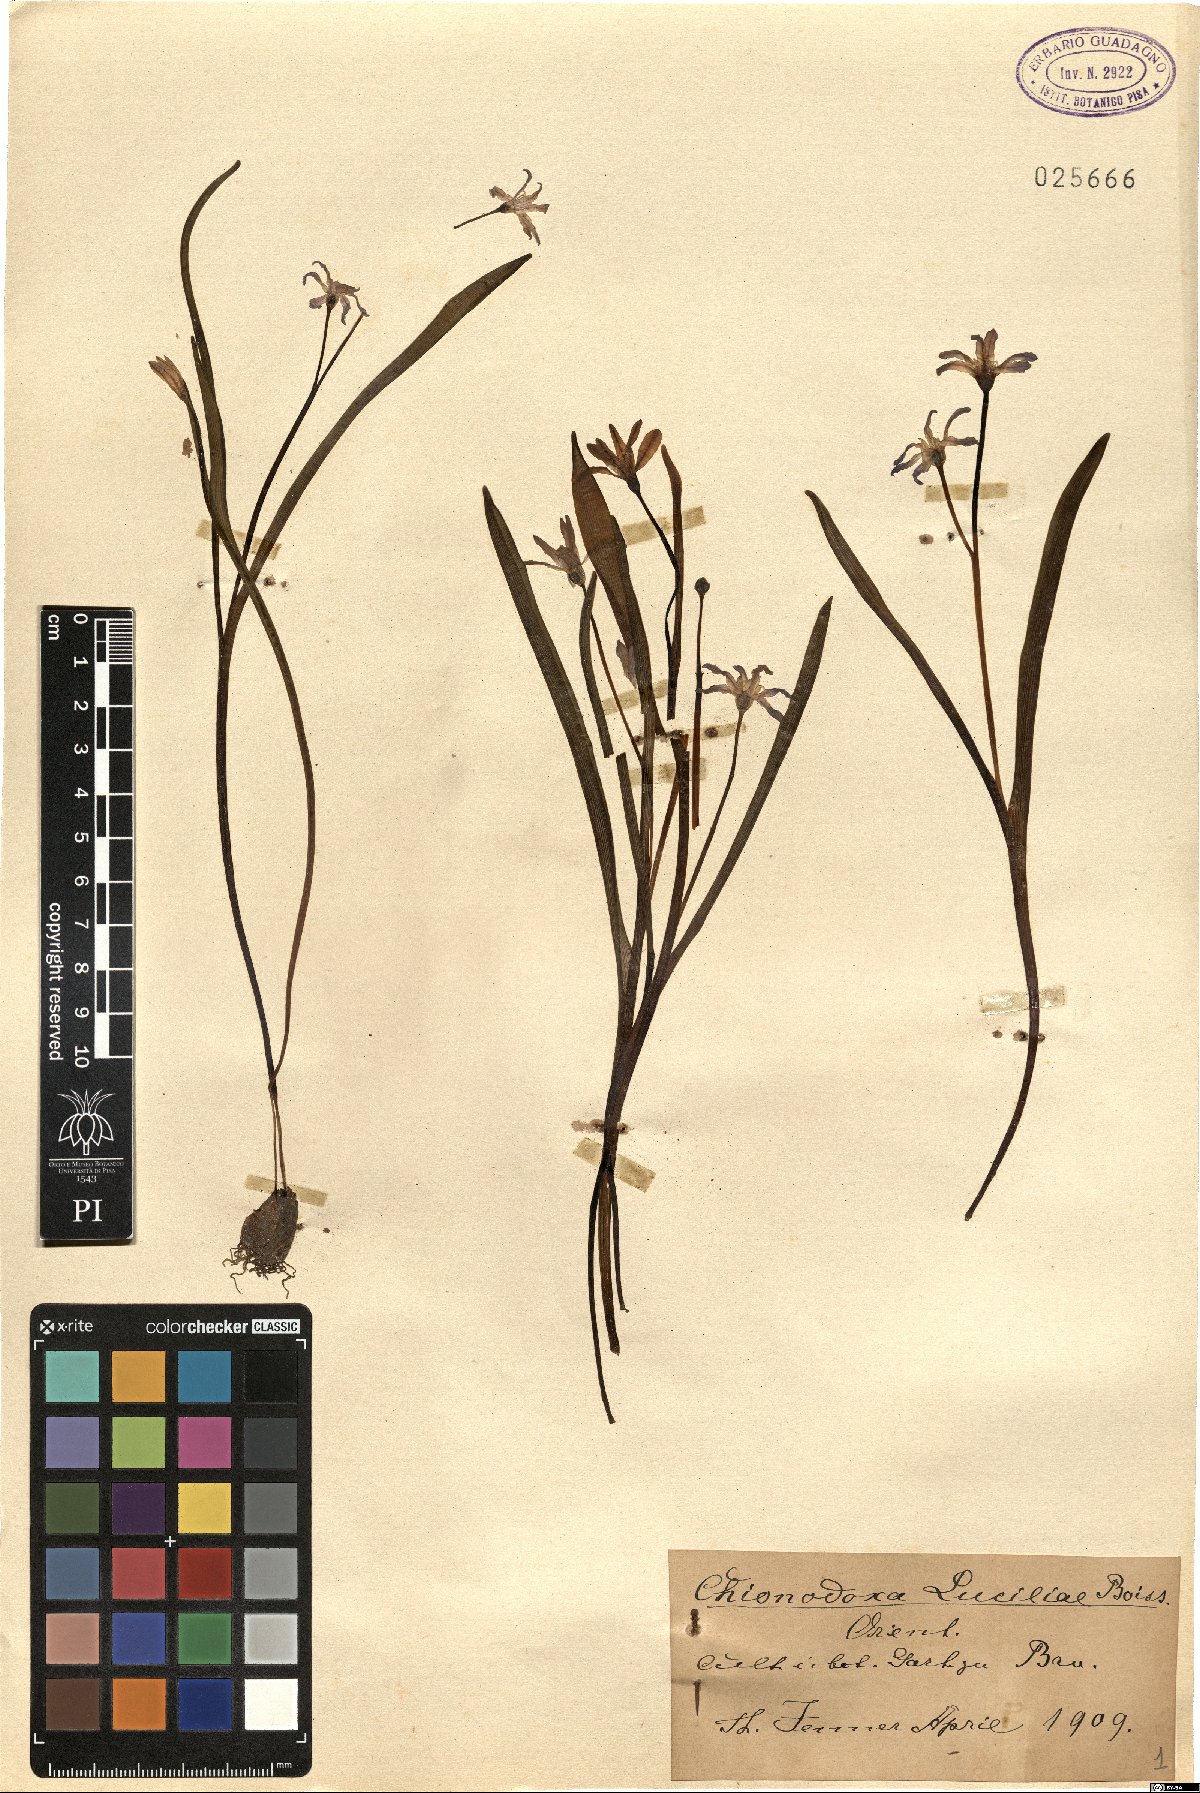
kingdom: Plantae
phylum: Tracheophyta
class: Liliopsida
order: Asparagales
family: Asparagaceae
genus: Scilla
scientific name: Scilla luciliae
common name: Boissier's glory-of-the-snow
